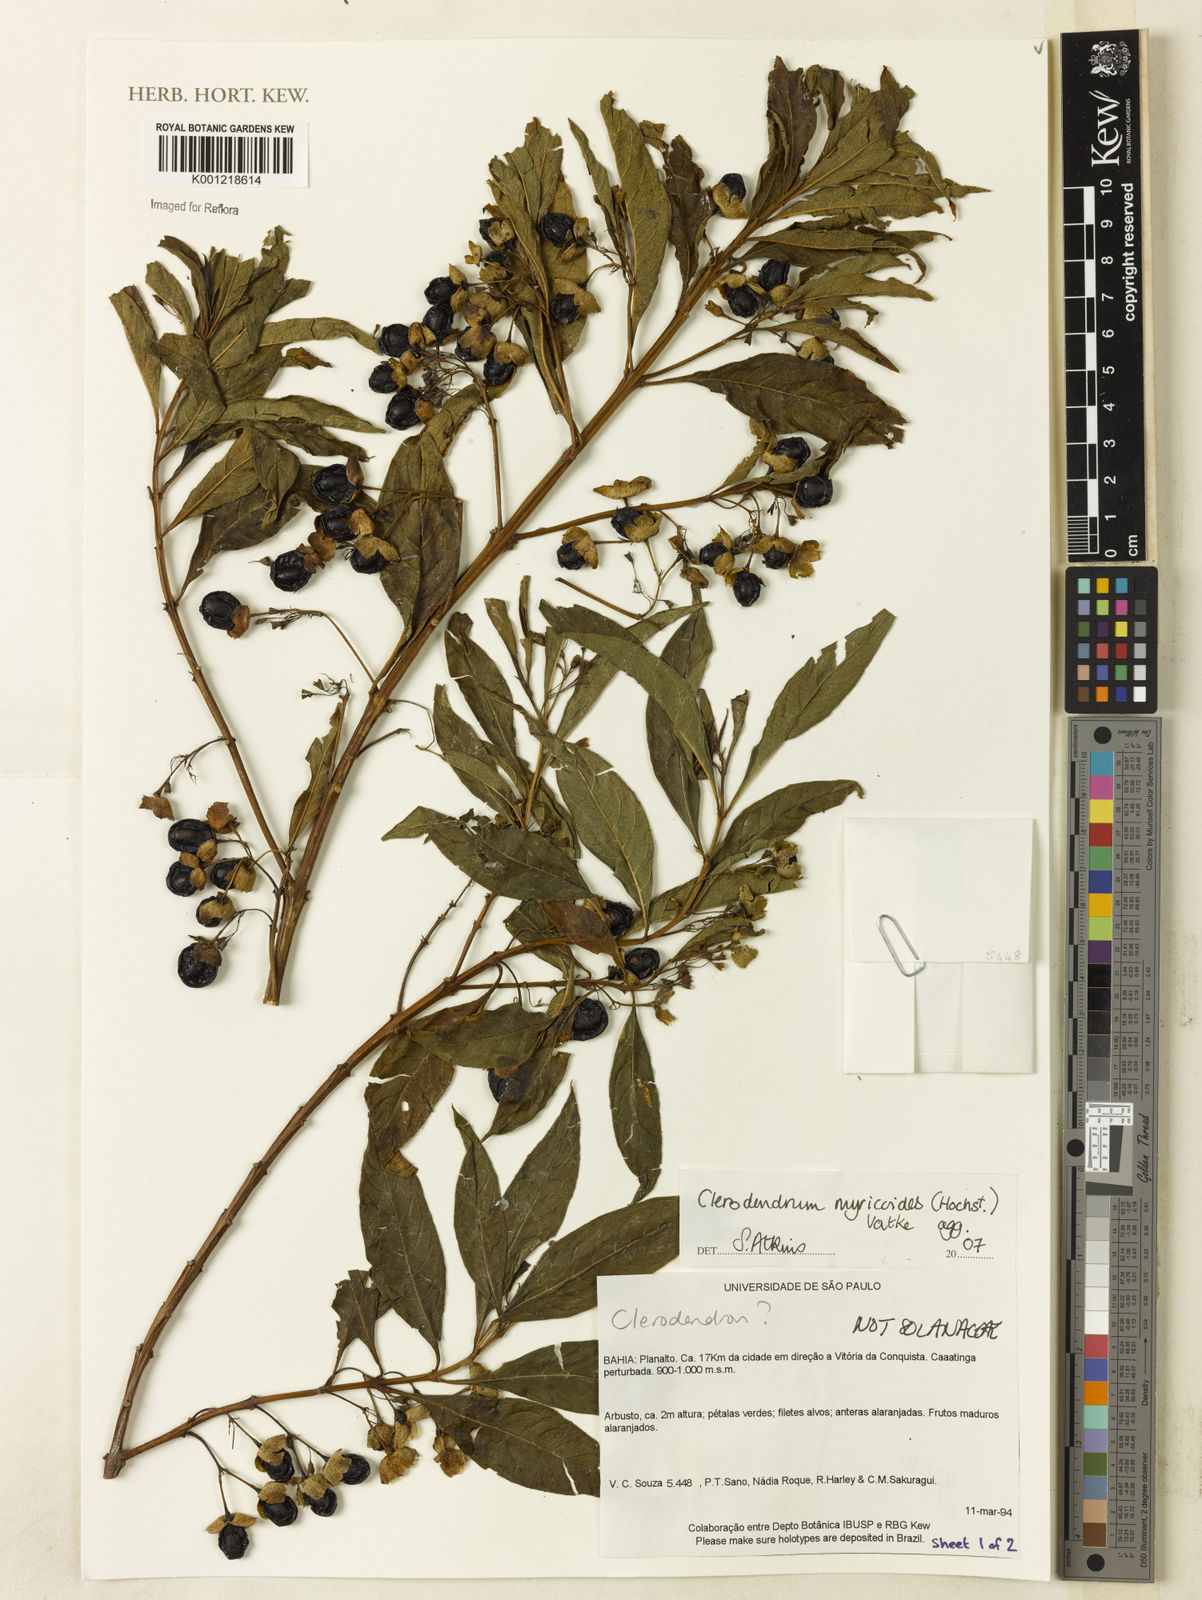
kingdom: Plantae
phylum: Tracheophyta
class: Magnoliopsida
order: Lamiales
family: Lamiaceae
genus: Rotheca
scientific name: Rotheca myricoides
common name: Cats-whiskers
